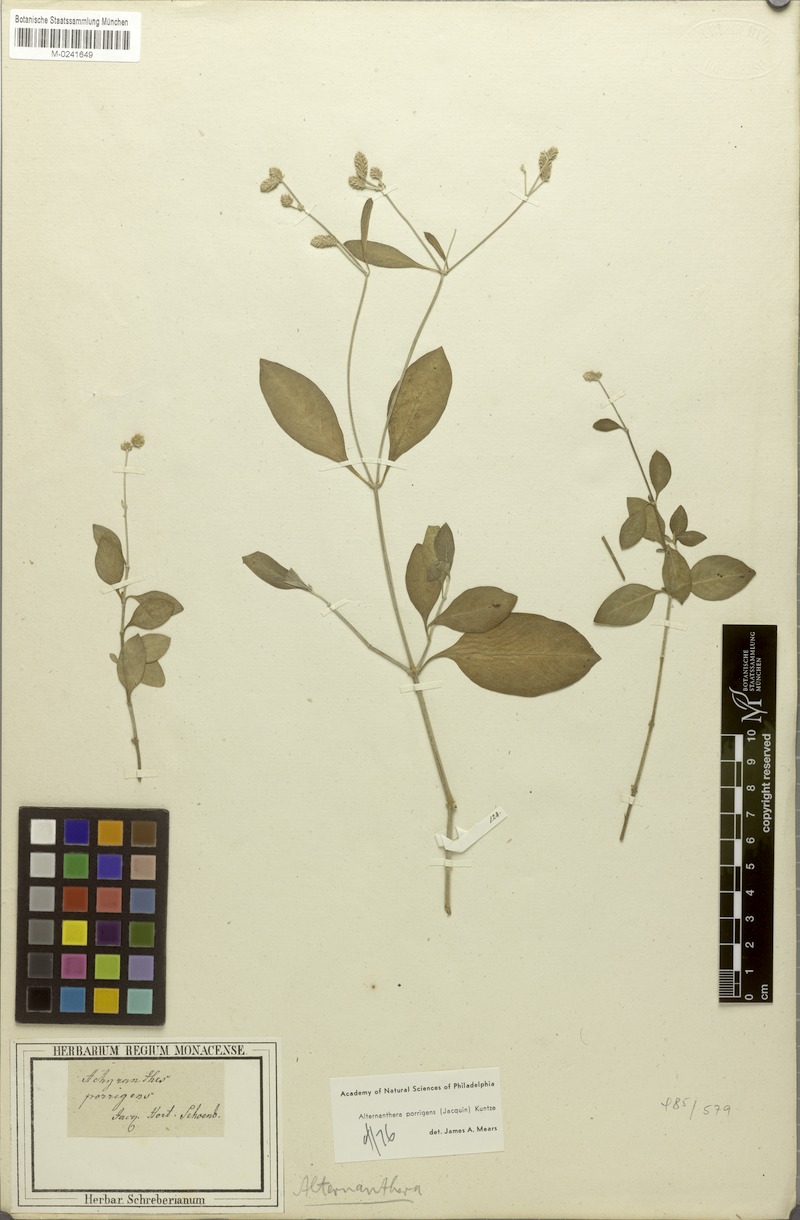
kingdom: Plantae
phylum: Tracheophyta
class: Magnoliopsida
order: Caryophyllales
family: Amaranthaceae
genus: Alternanthera
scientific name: Alternanthera porrigens
